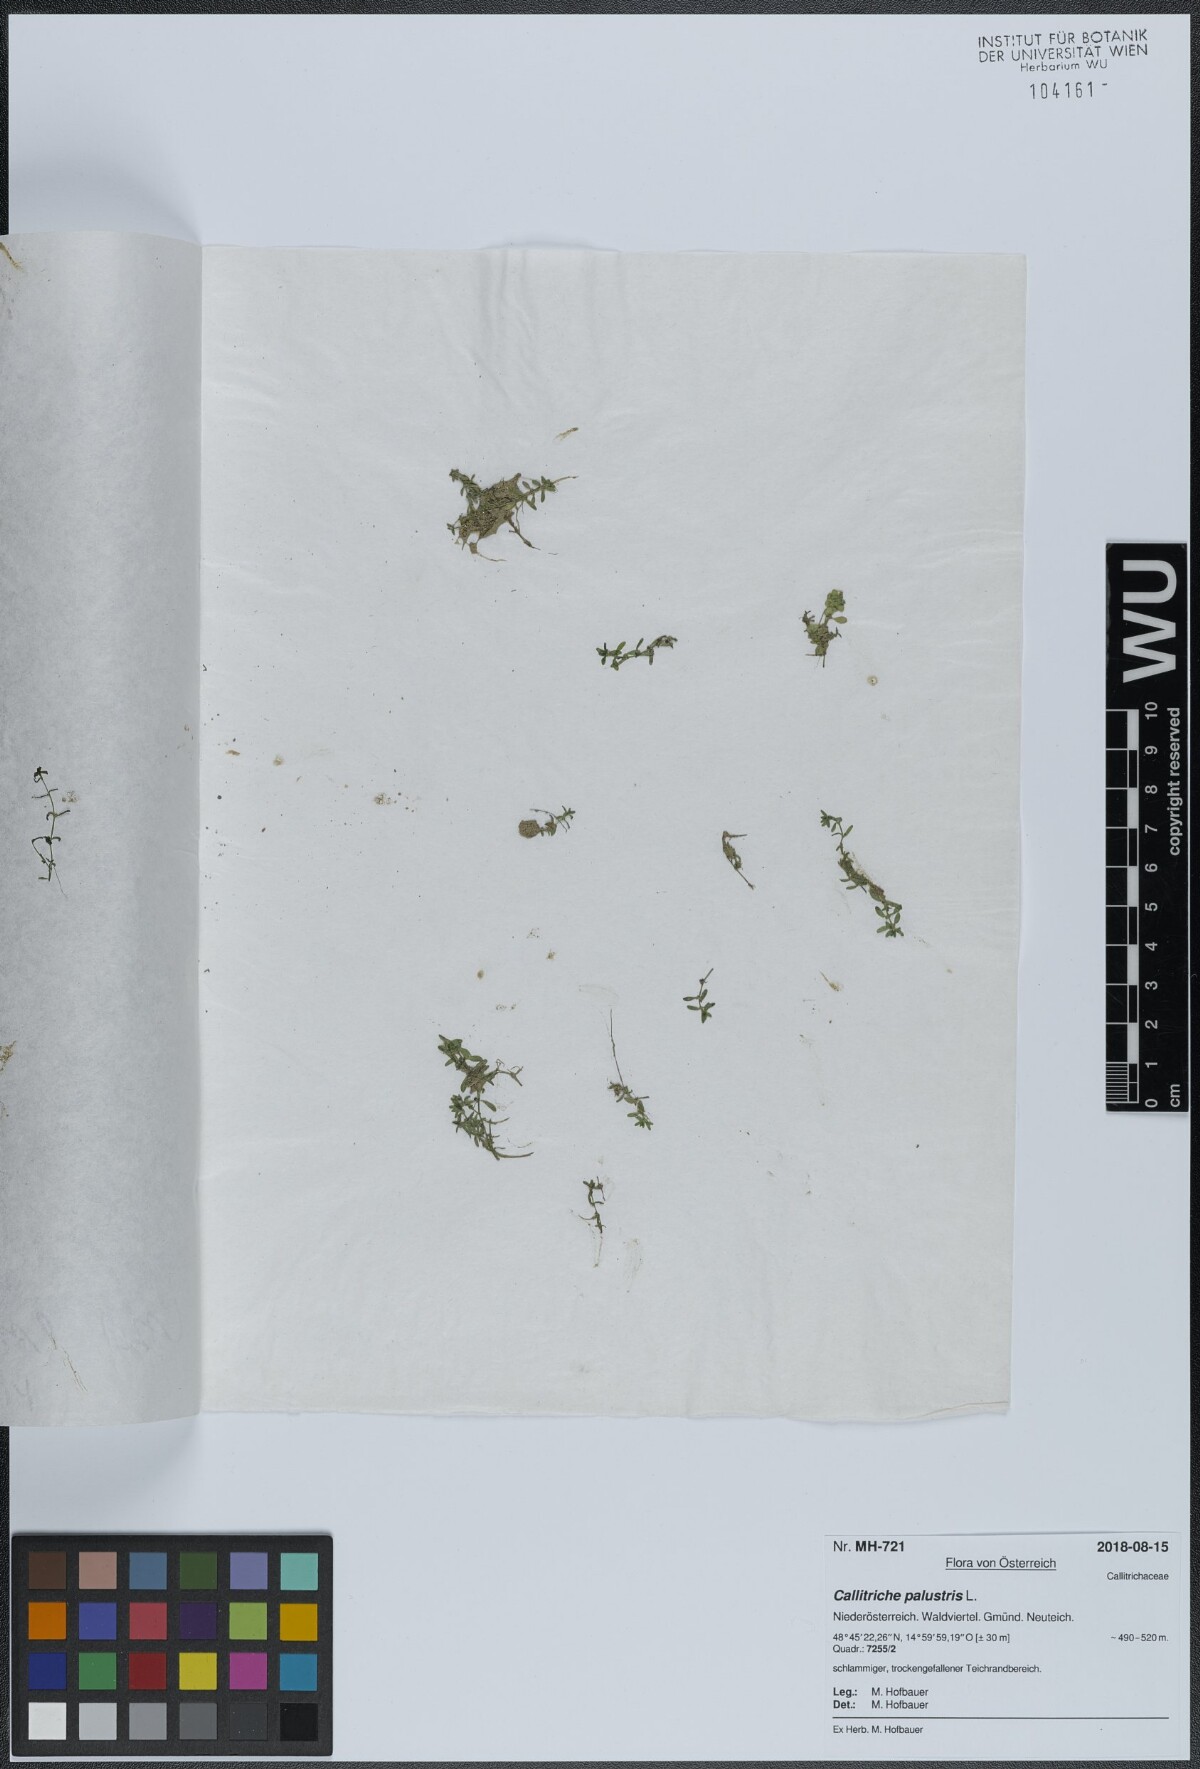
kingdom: Plantae
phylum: Tracheophyta
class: Magnoliopsida
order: Lamiales
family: Plantaginaceae
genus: Callitriche
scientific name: Callitriche palustris
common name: Spring water-starwort
